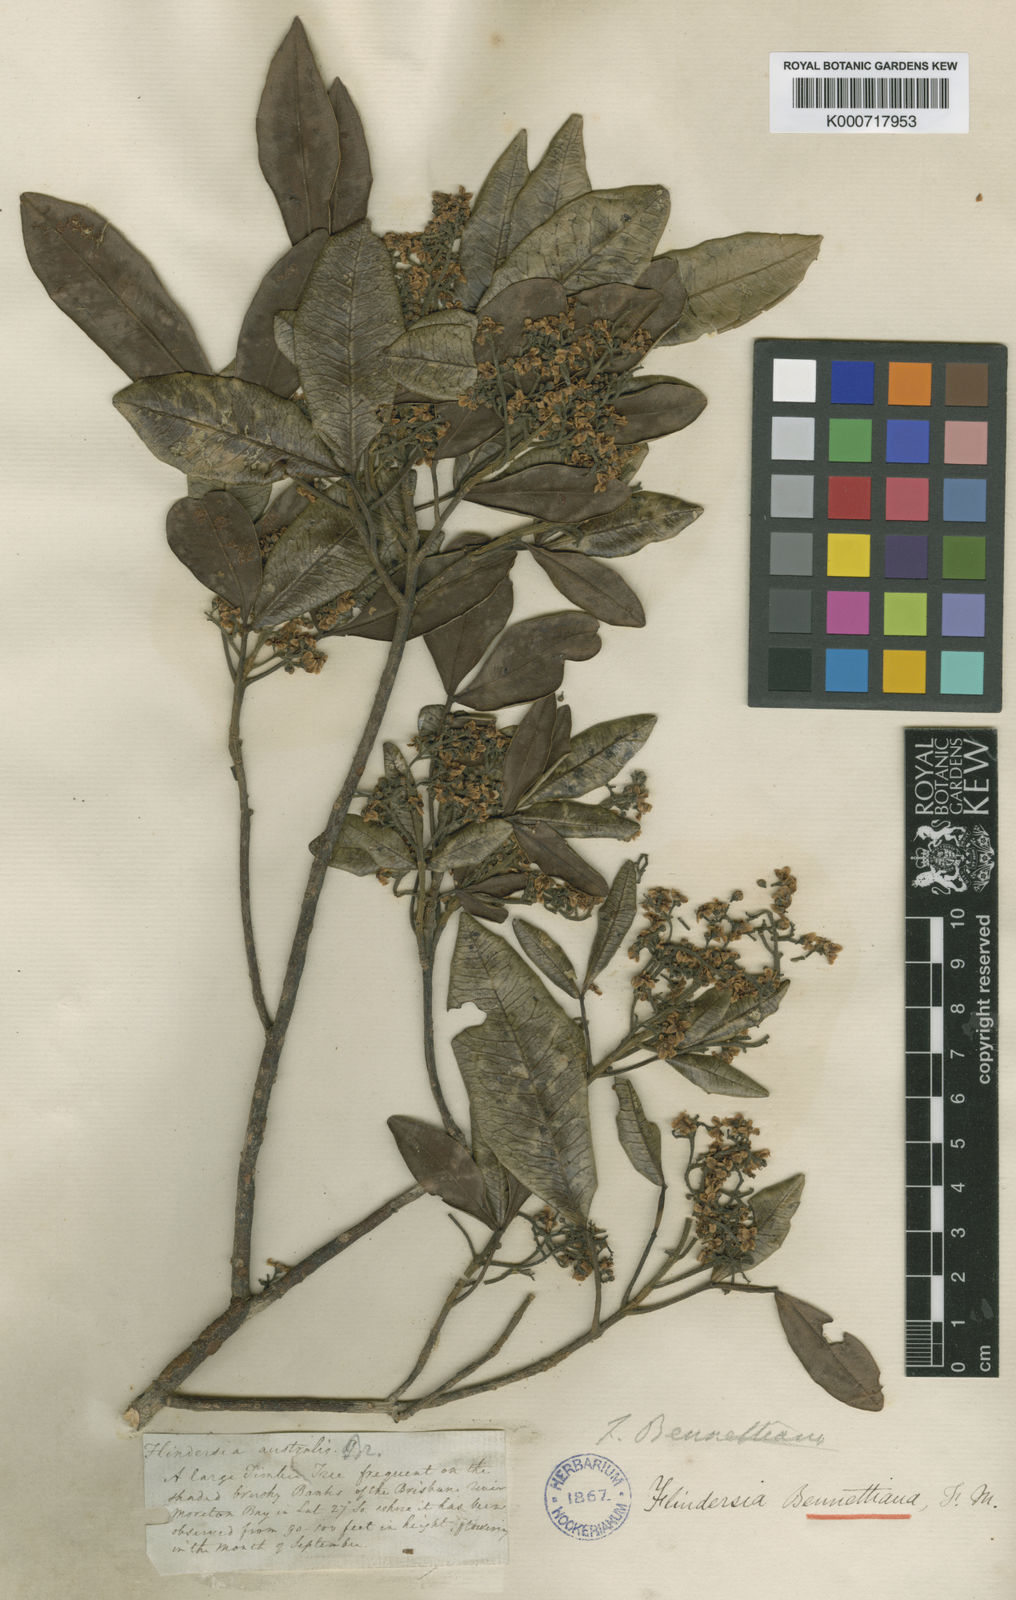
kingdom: Plantae
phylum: Tracheophyta
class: Magnoliopsida
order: Sapindales
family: Rutaceae
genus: Flindersia
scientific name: Flindersia bennettii
